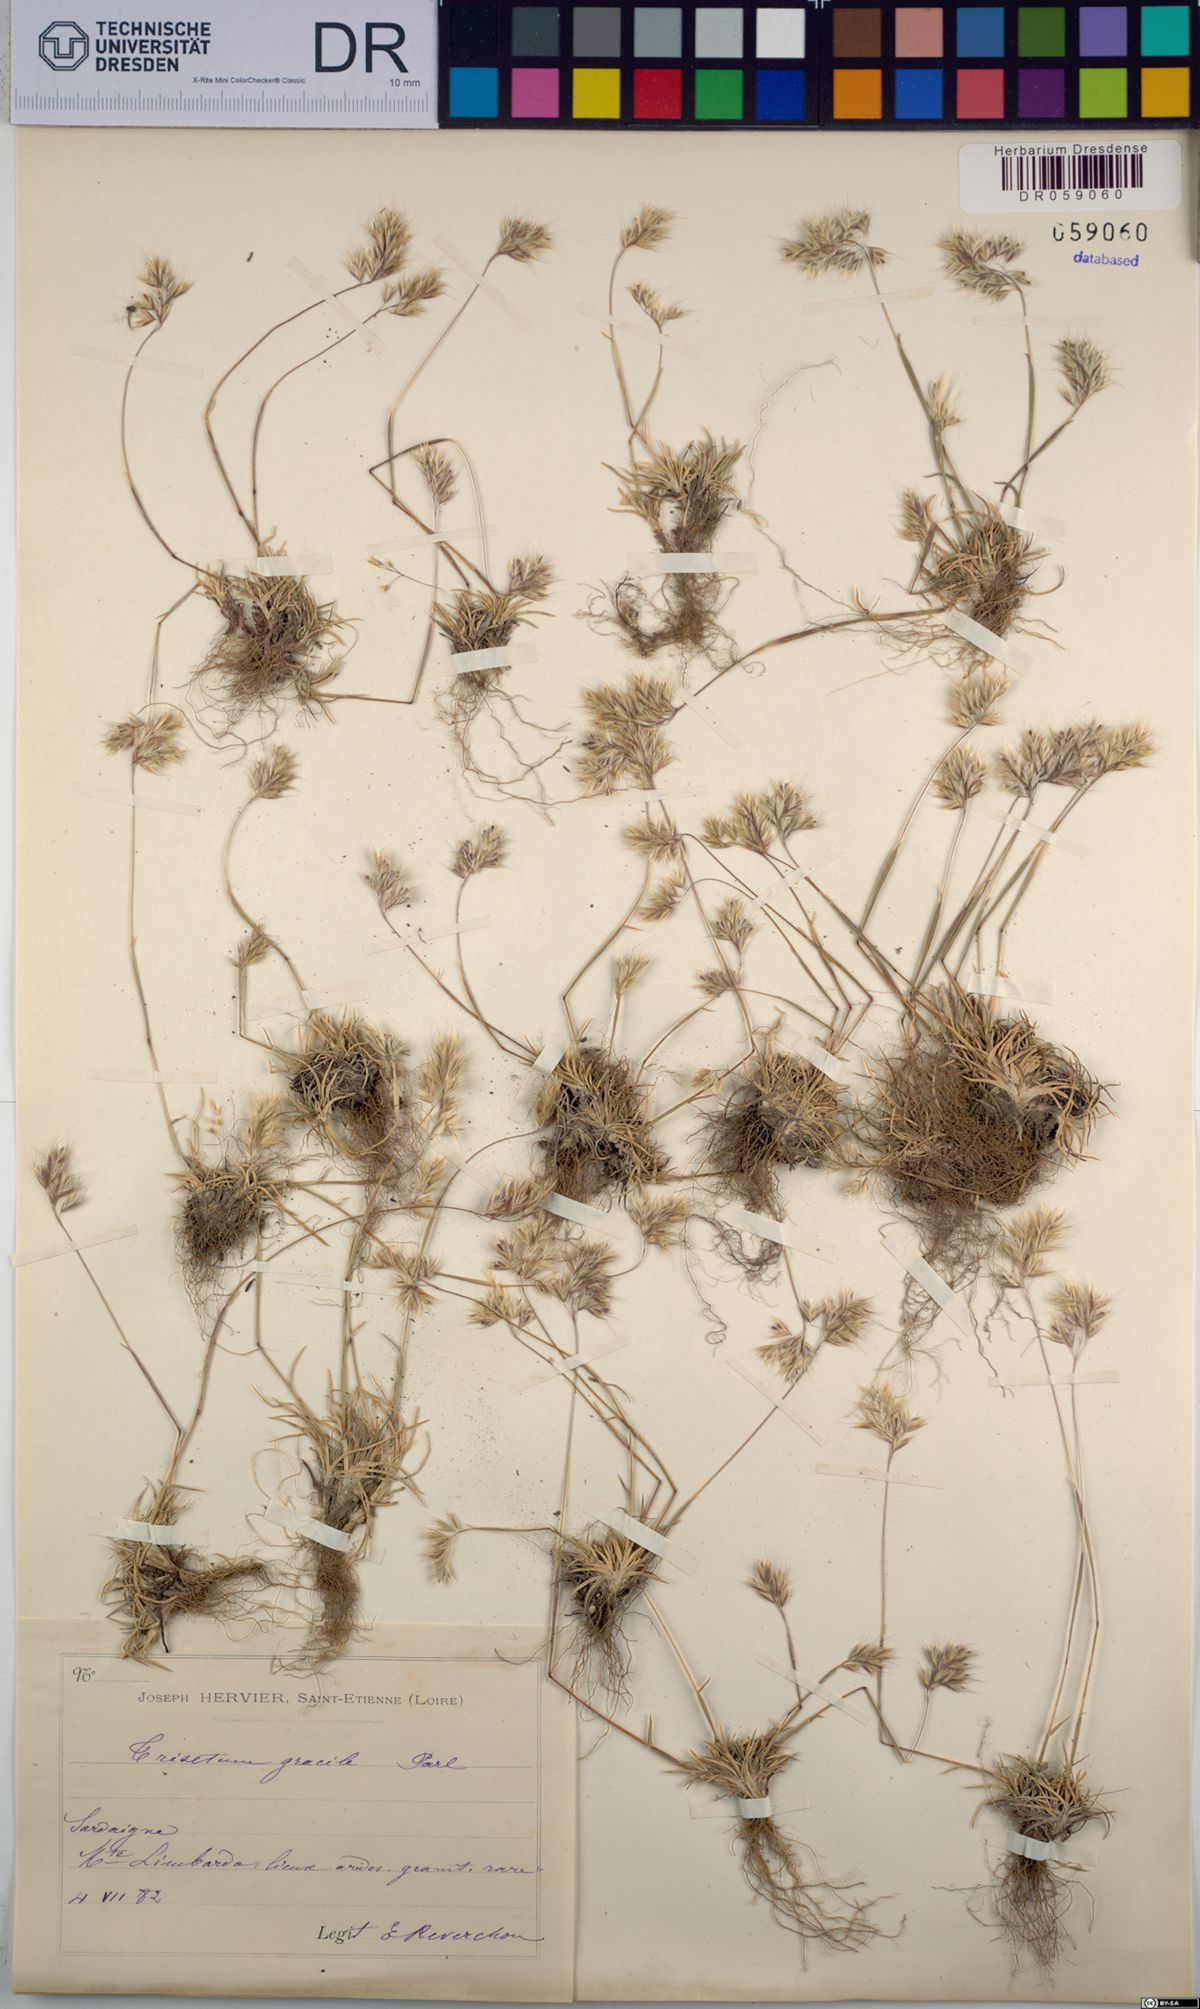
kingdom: Plantae
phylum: Tracheophyta
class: Liliopsida
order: Poales
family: Poaceae
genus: Trisetum
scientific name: Trisetum gracile
